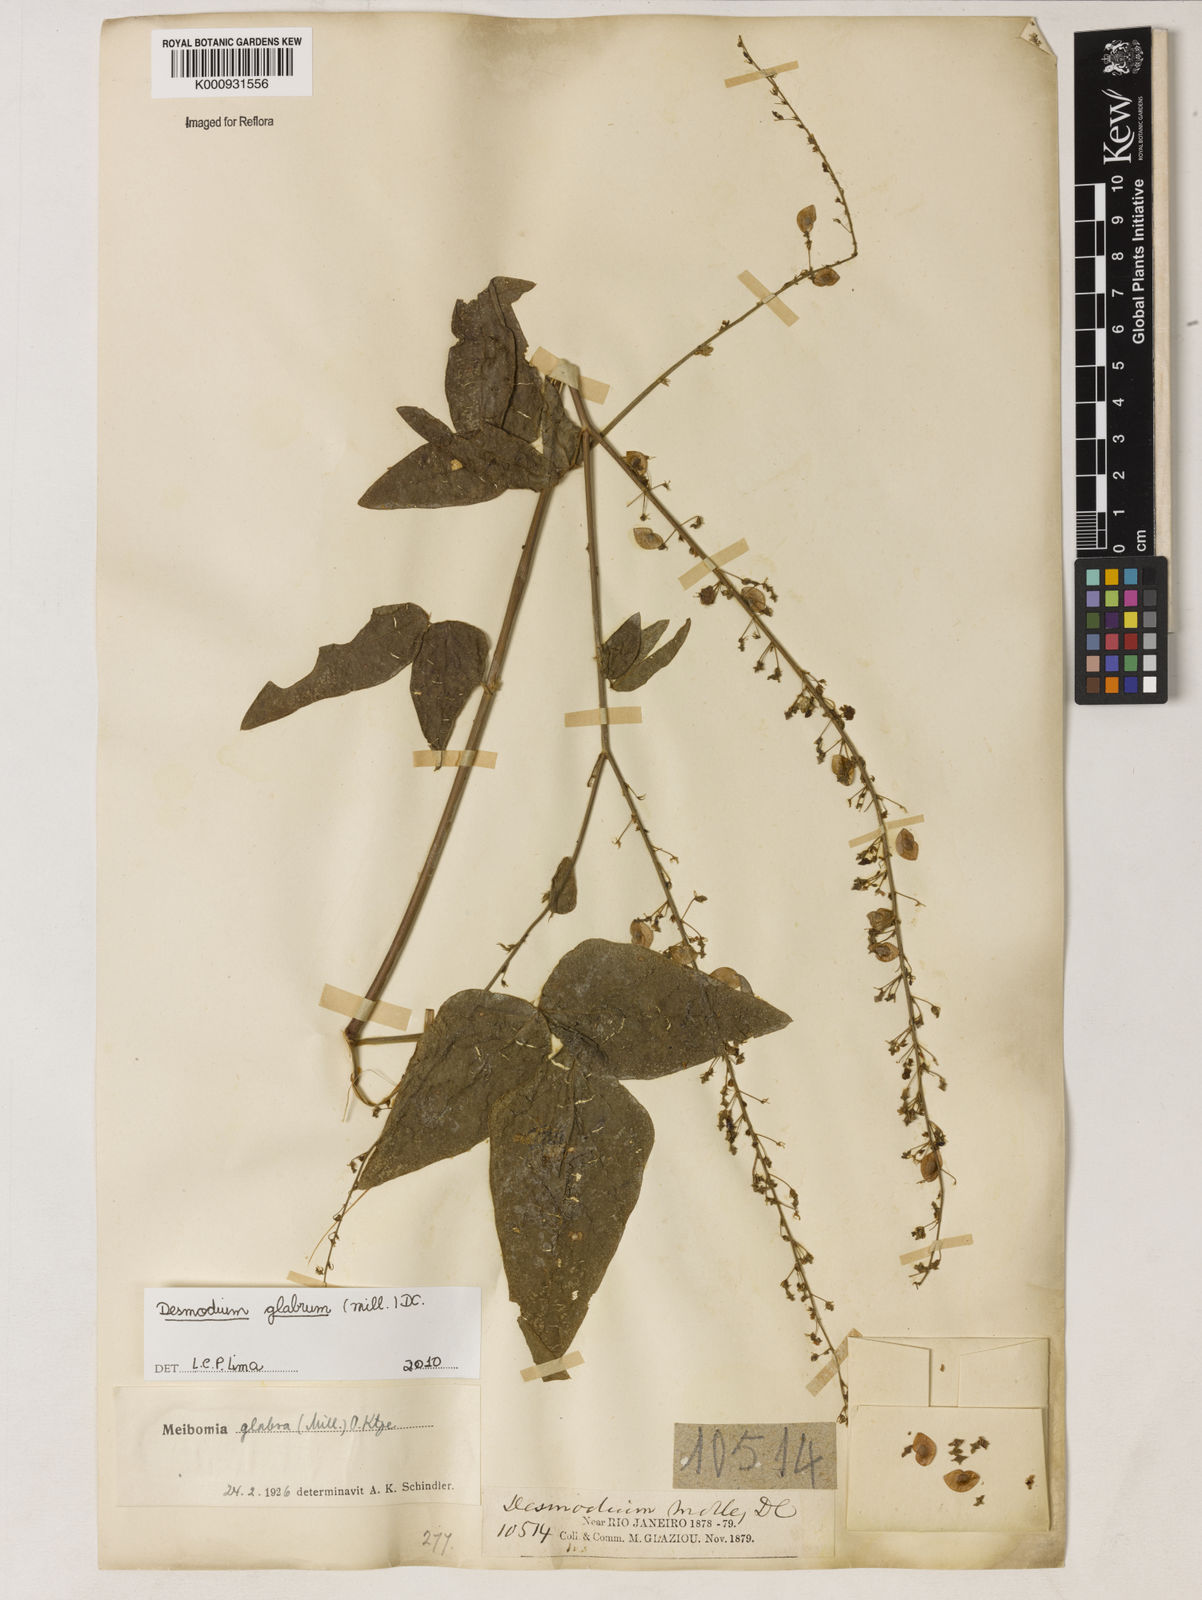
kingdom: Plantae
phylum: Tracheophyta
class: Magnoliopsida
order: Fabales
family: Fabaceae
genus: Desmodium
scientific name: Desmodium glabrum
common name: Zarzabacoa dulce
